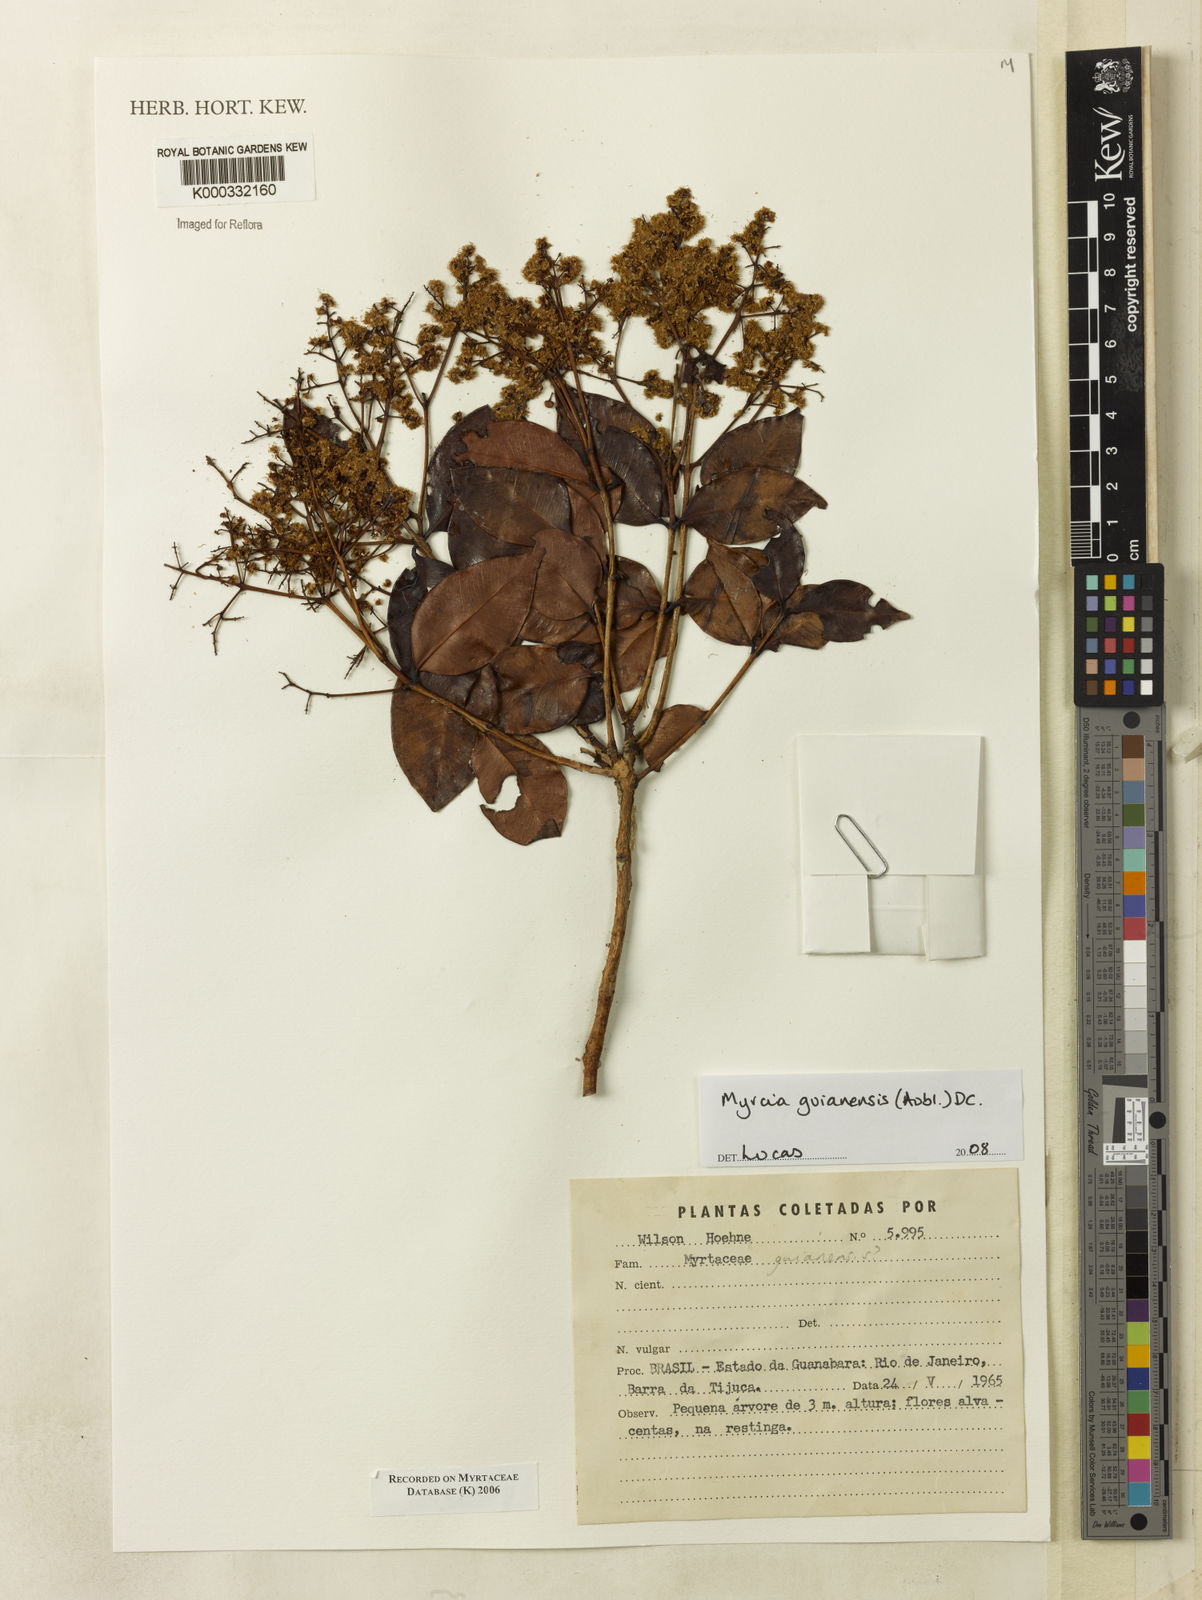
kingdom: Plantae
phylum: Tracheophyta
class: Magnoliopsida
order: Myrtales
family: Myrtaceae
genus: Myrcia
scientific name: Myrcia
